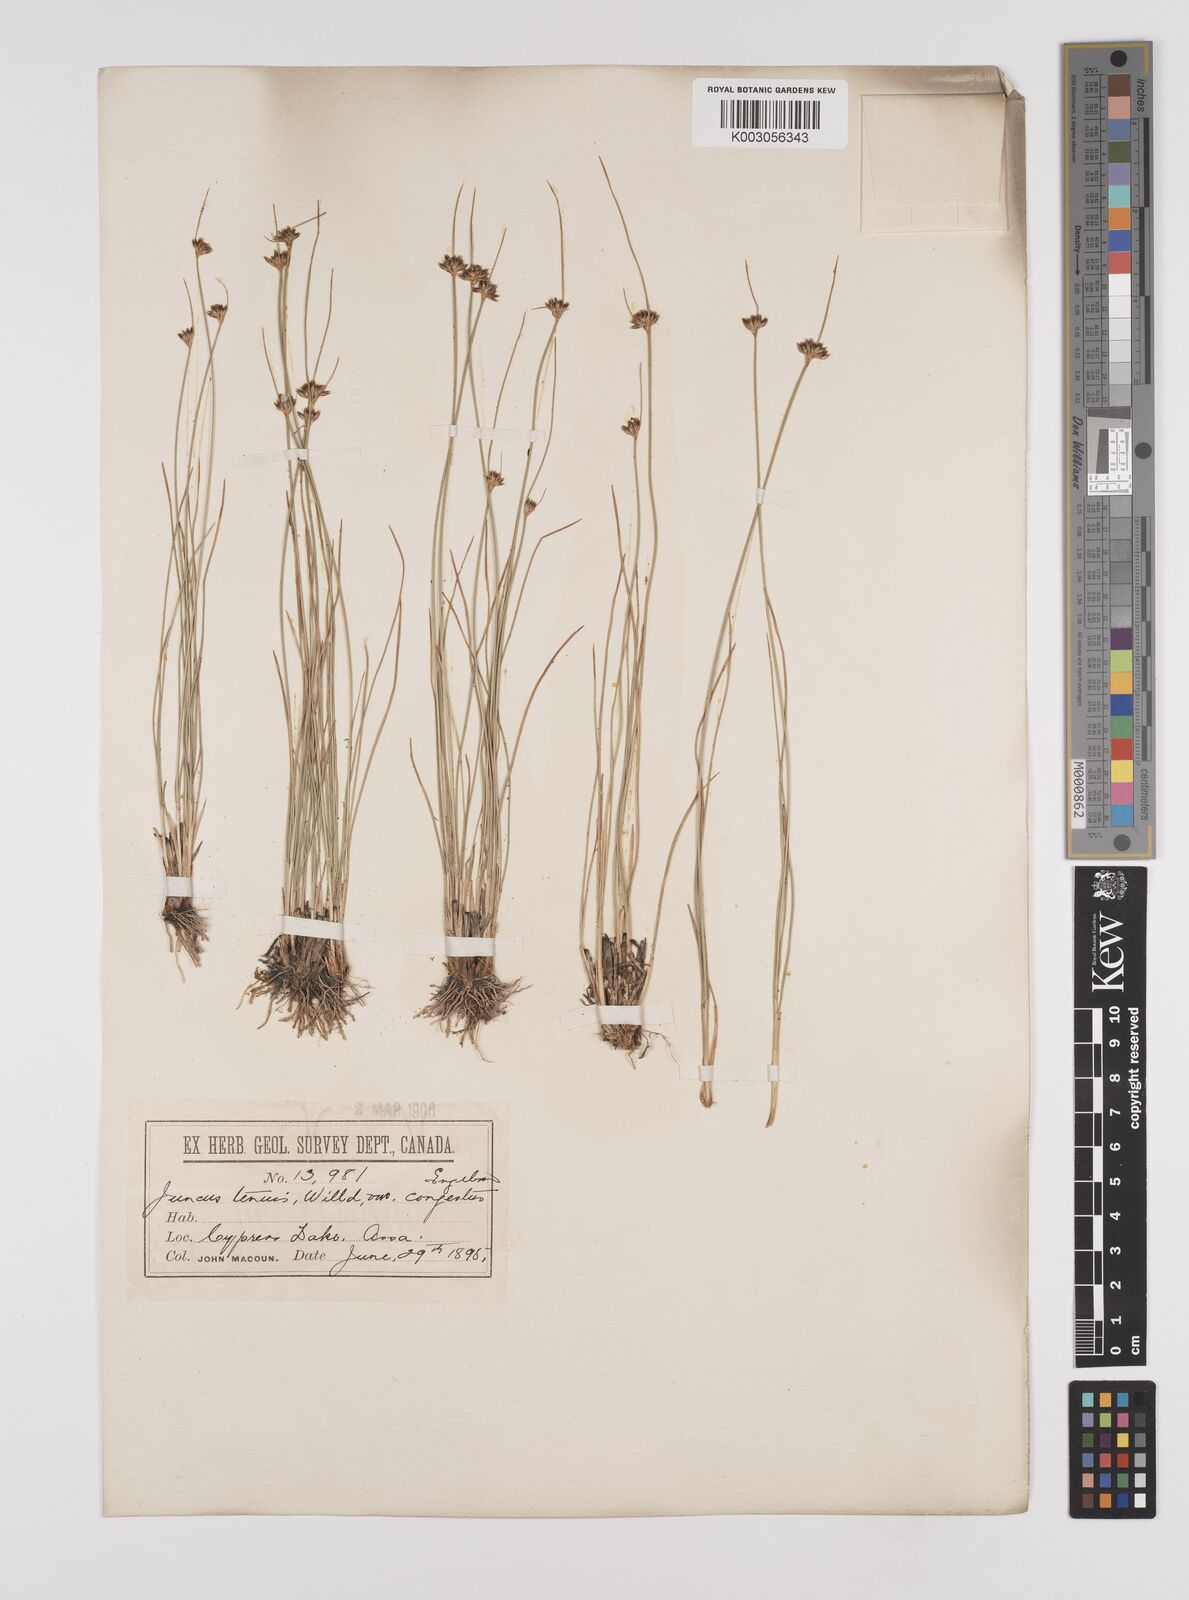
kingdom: Plantae
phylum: Tracheophyta
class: Liliopsida
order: Poales
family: Juncaceae
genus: Juncus
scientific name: Juncus tenuis
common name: Slender rush
